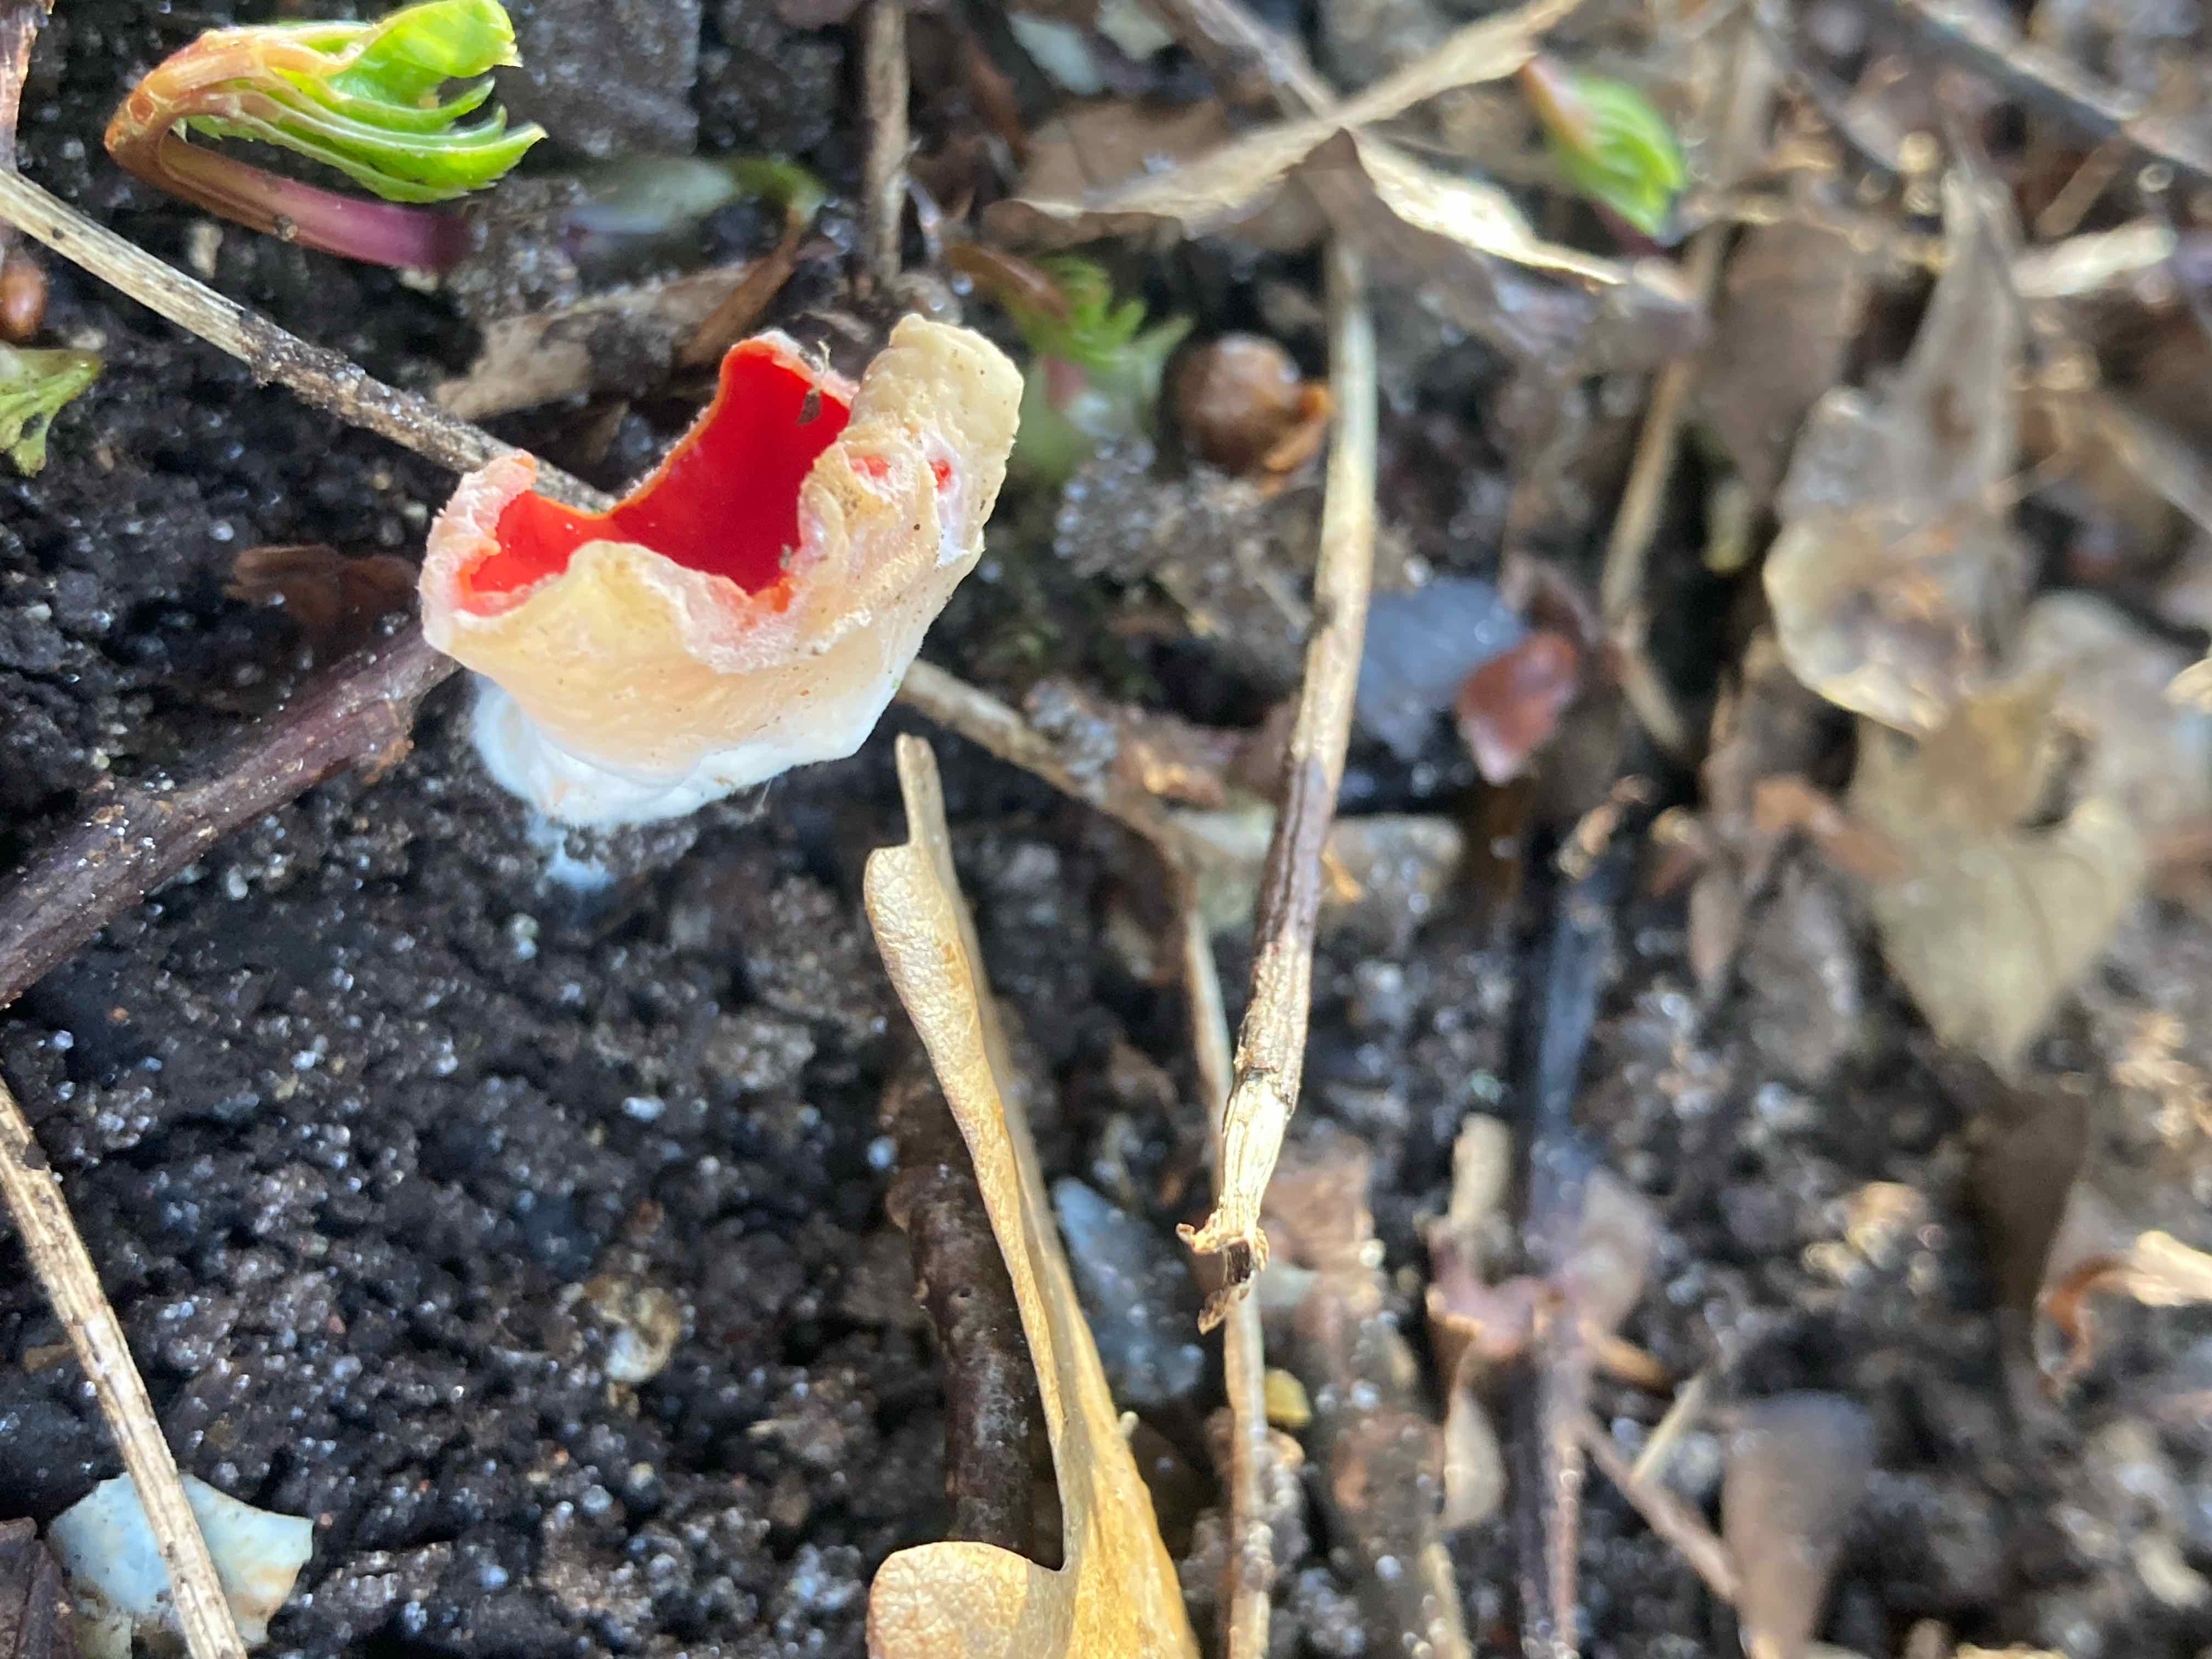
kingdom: Fungi
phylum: Ascomycota
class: Pezizomycetes
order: Pezizales
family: Sarcoscyphaceae
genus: Sarcoscypha
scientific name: Sarcoscypha
